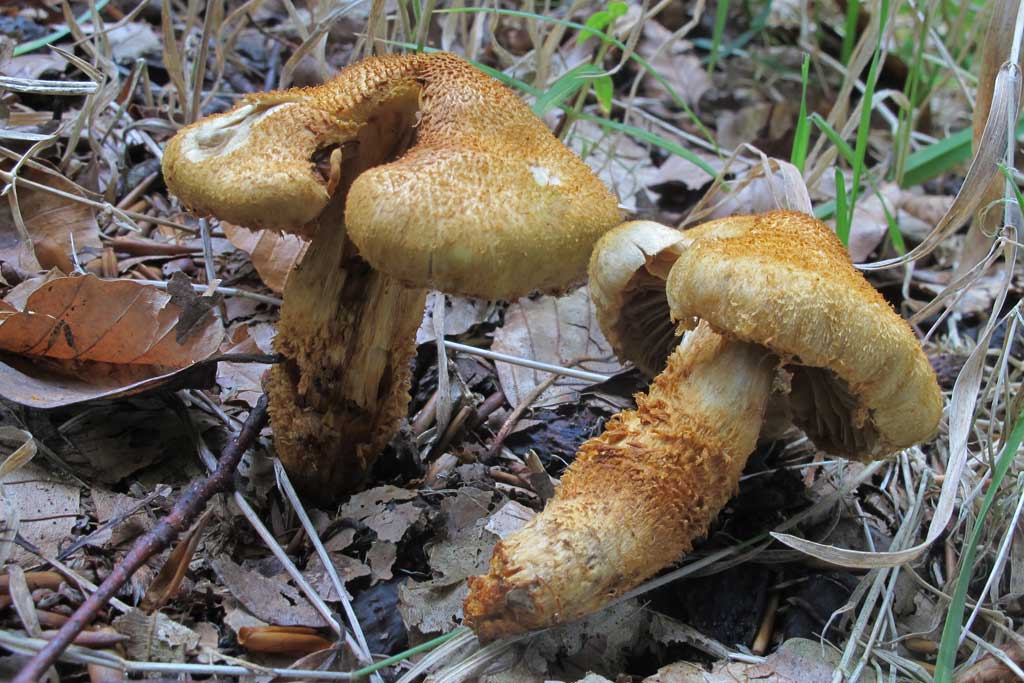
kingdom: Fungi
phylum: Basidiomycota
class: Agaricomycetes
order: Agaricales
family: Cortinariaceae
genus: Cortinarius
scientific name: Cortinarius humicola
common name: krumskællet slørhat
